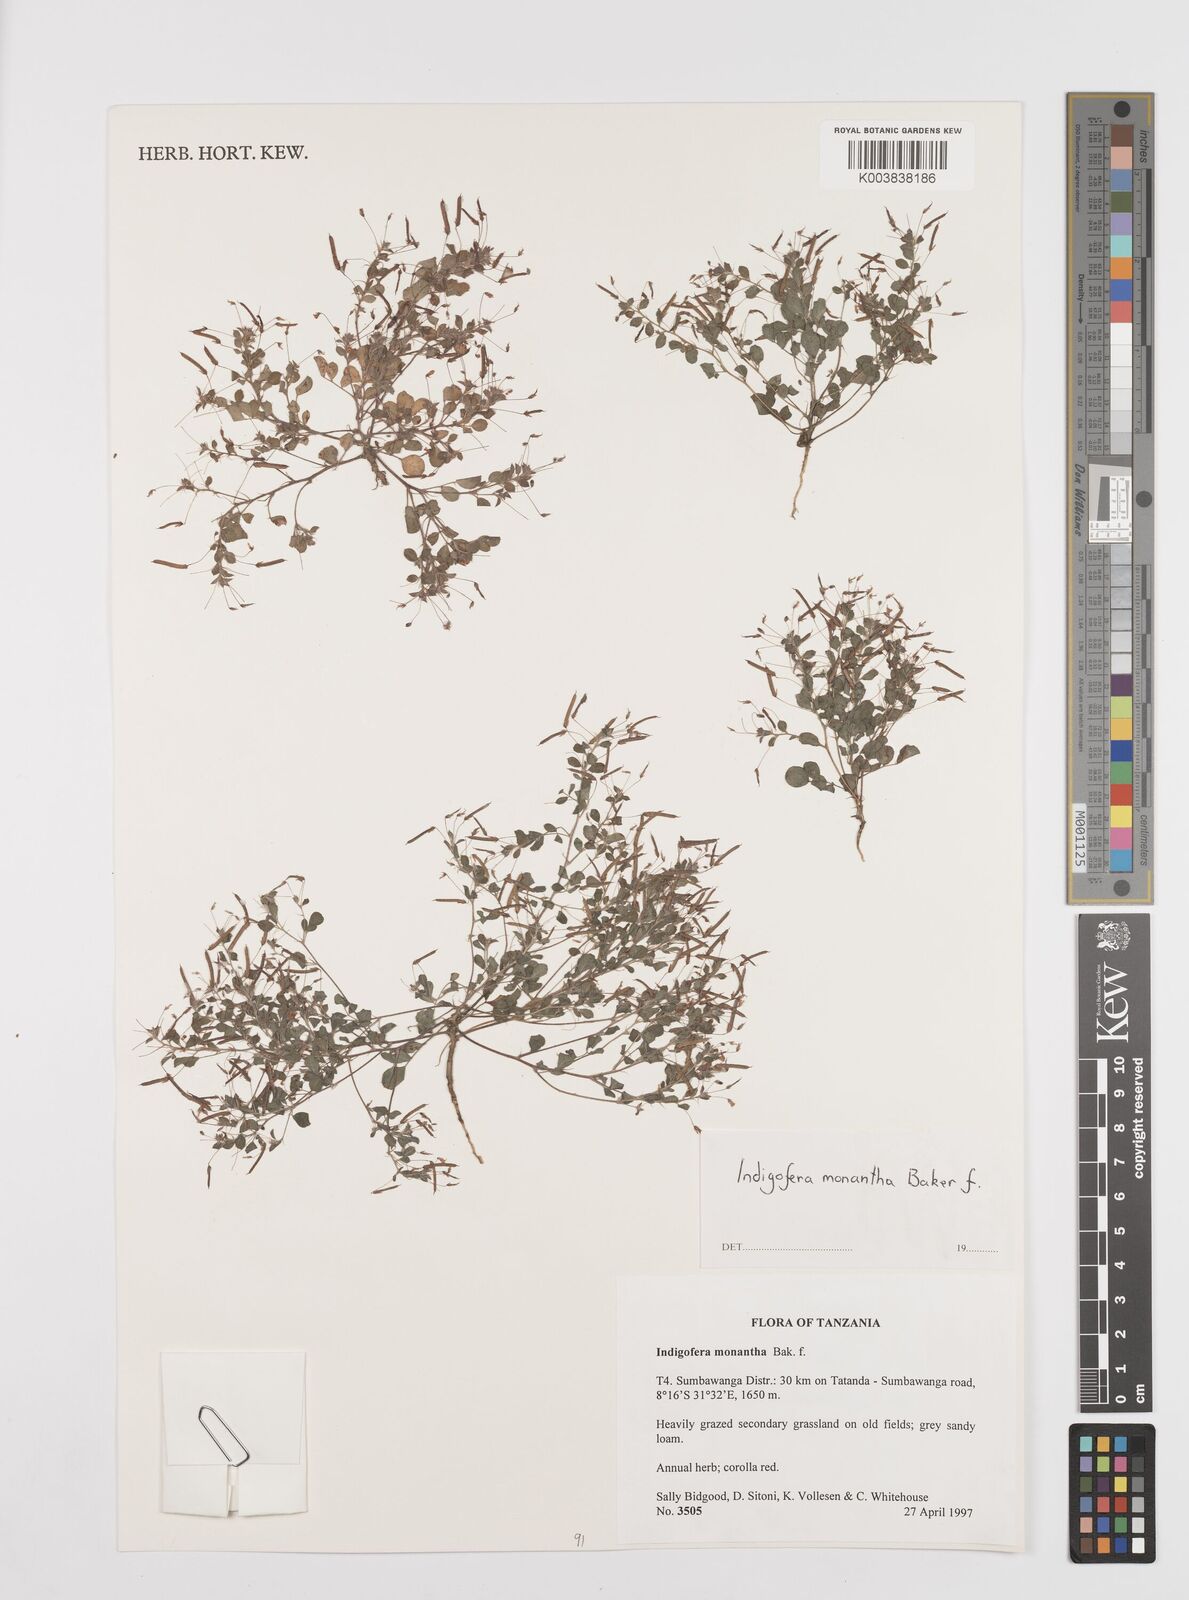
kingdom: Plantae
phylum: Tracheophyta
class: Magnoliopsida
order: Fabales
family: Fabaceae
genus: Indigofera
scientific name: Indigofera monantha
